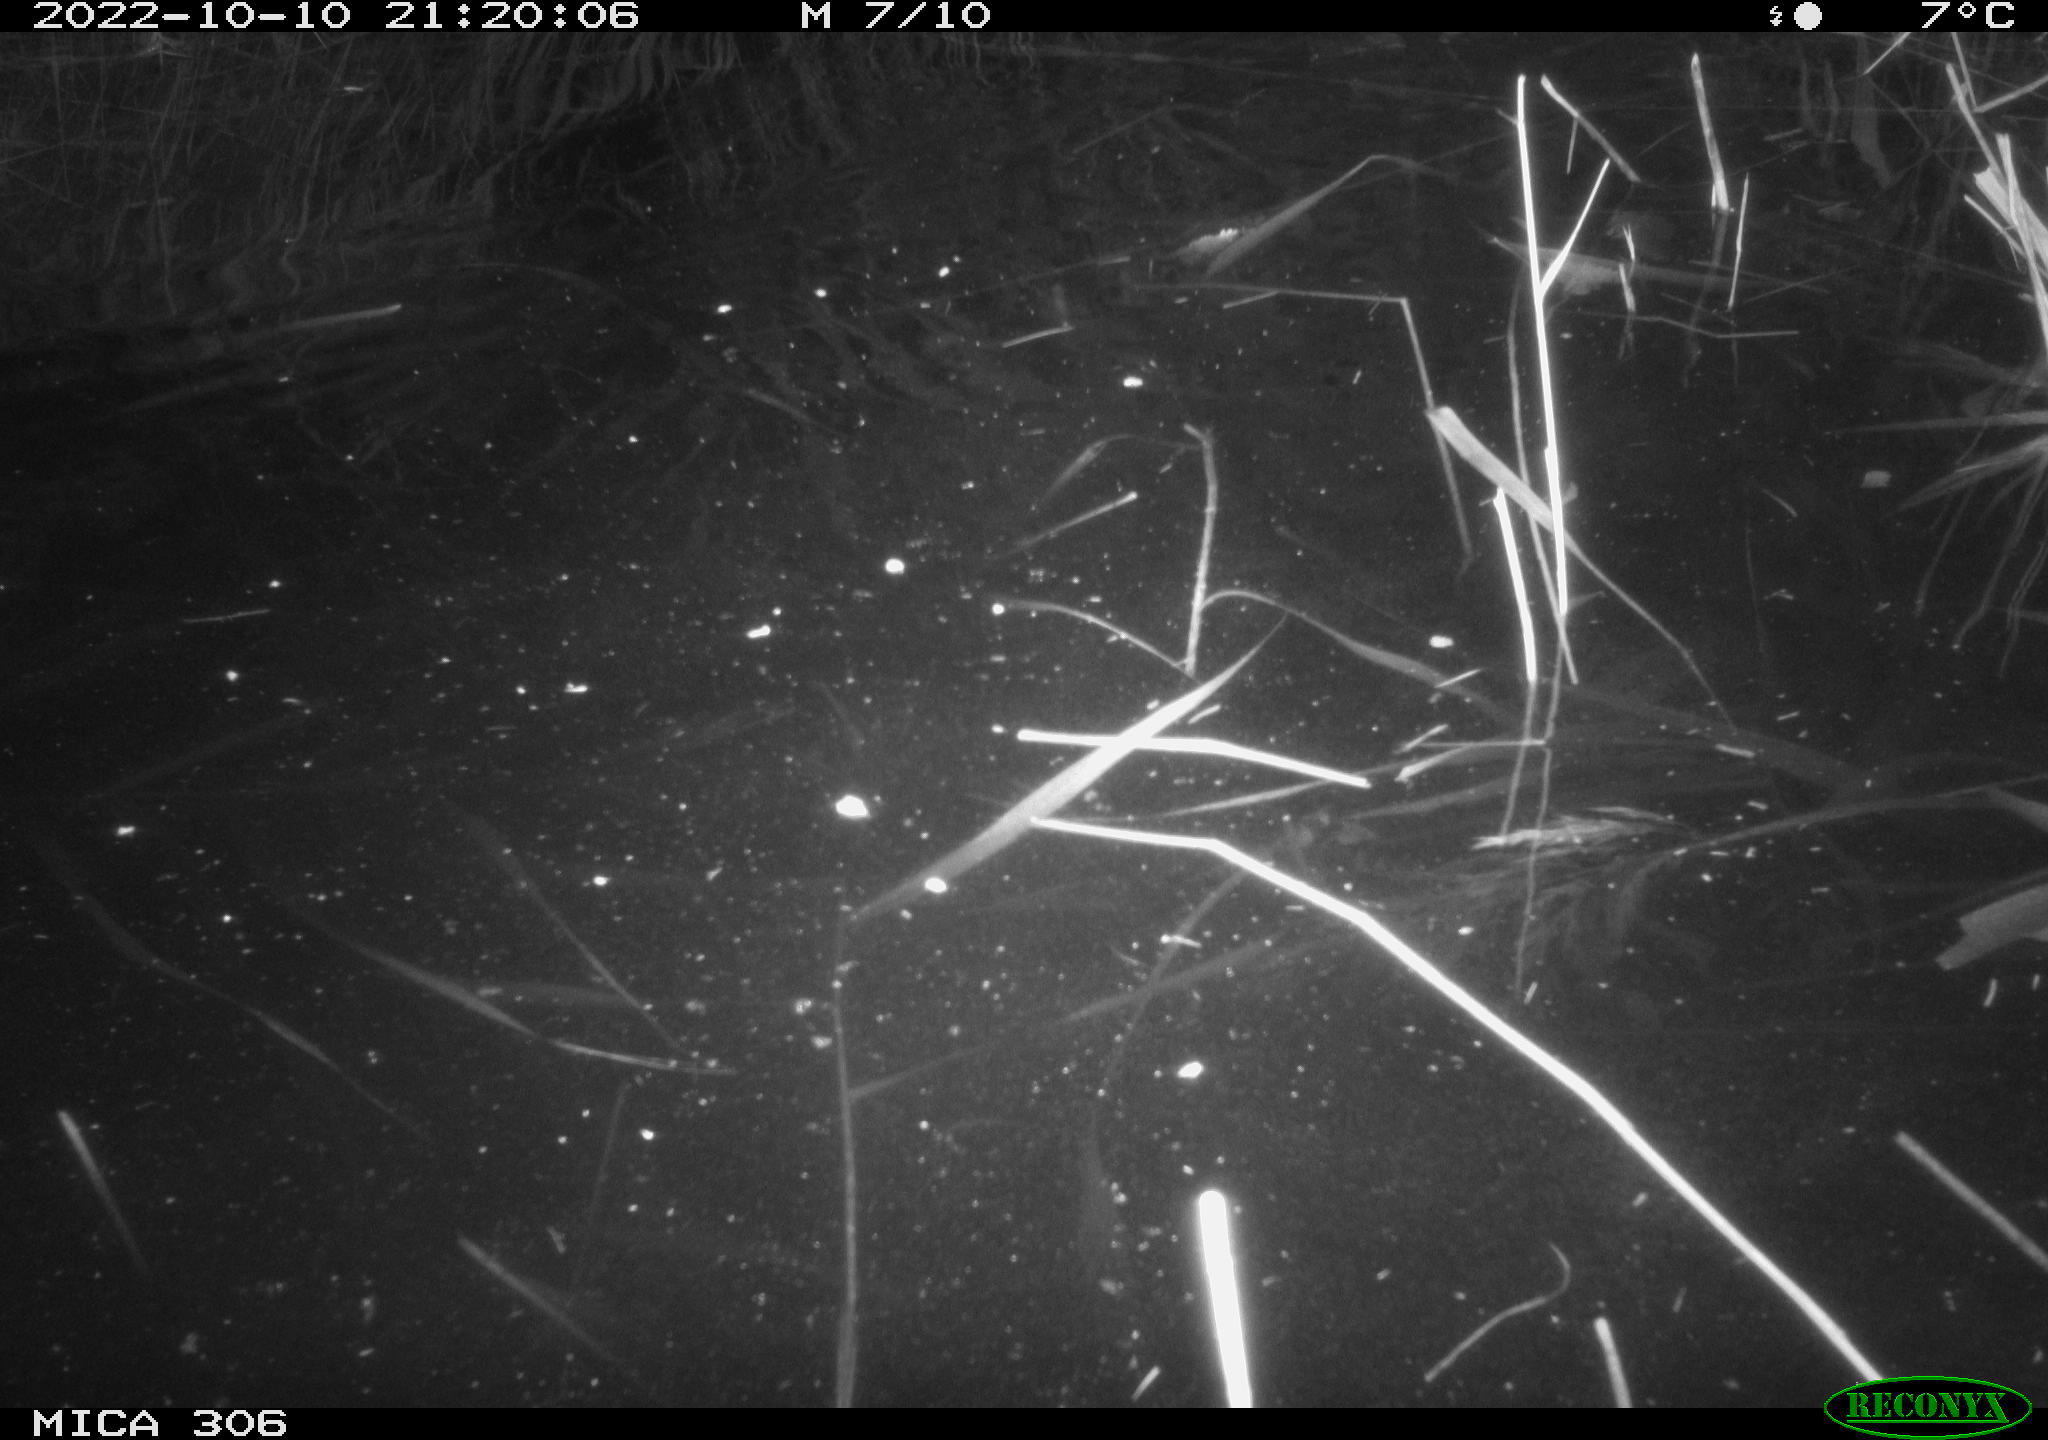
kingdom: Animalia
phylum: Chordata
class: Mammalia
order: Rodentia
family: Muridae
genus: Rattus
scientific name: Rattus norvegicus
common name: Brown rat
